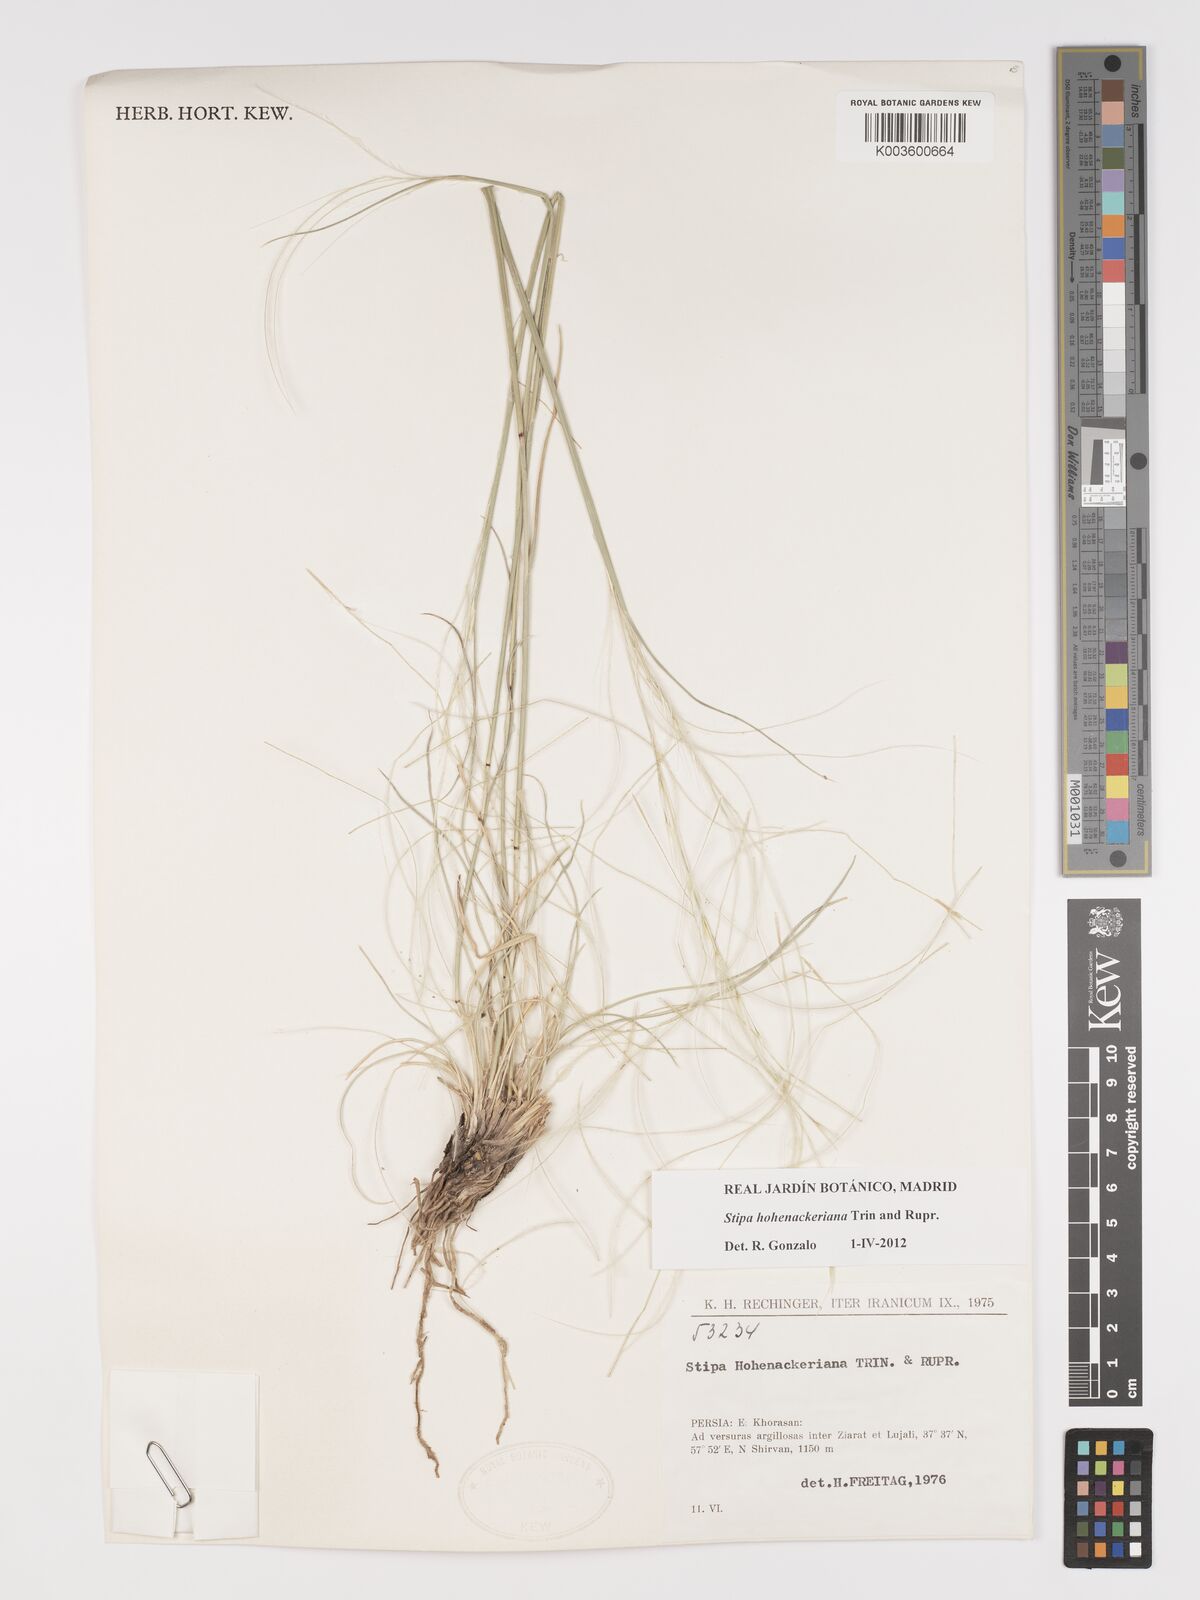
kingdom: Plantae
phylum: Tracheophyta
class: Liliopsida
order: Poales
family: Poaceae
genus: Stipa
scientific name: Stipa hohenackeriana
